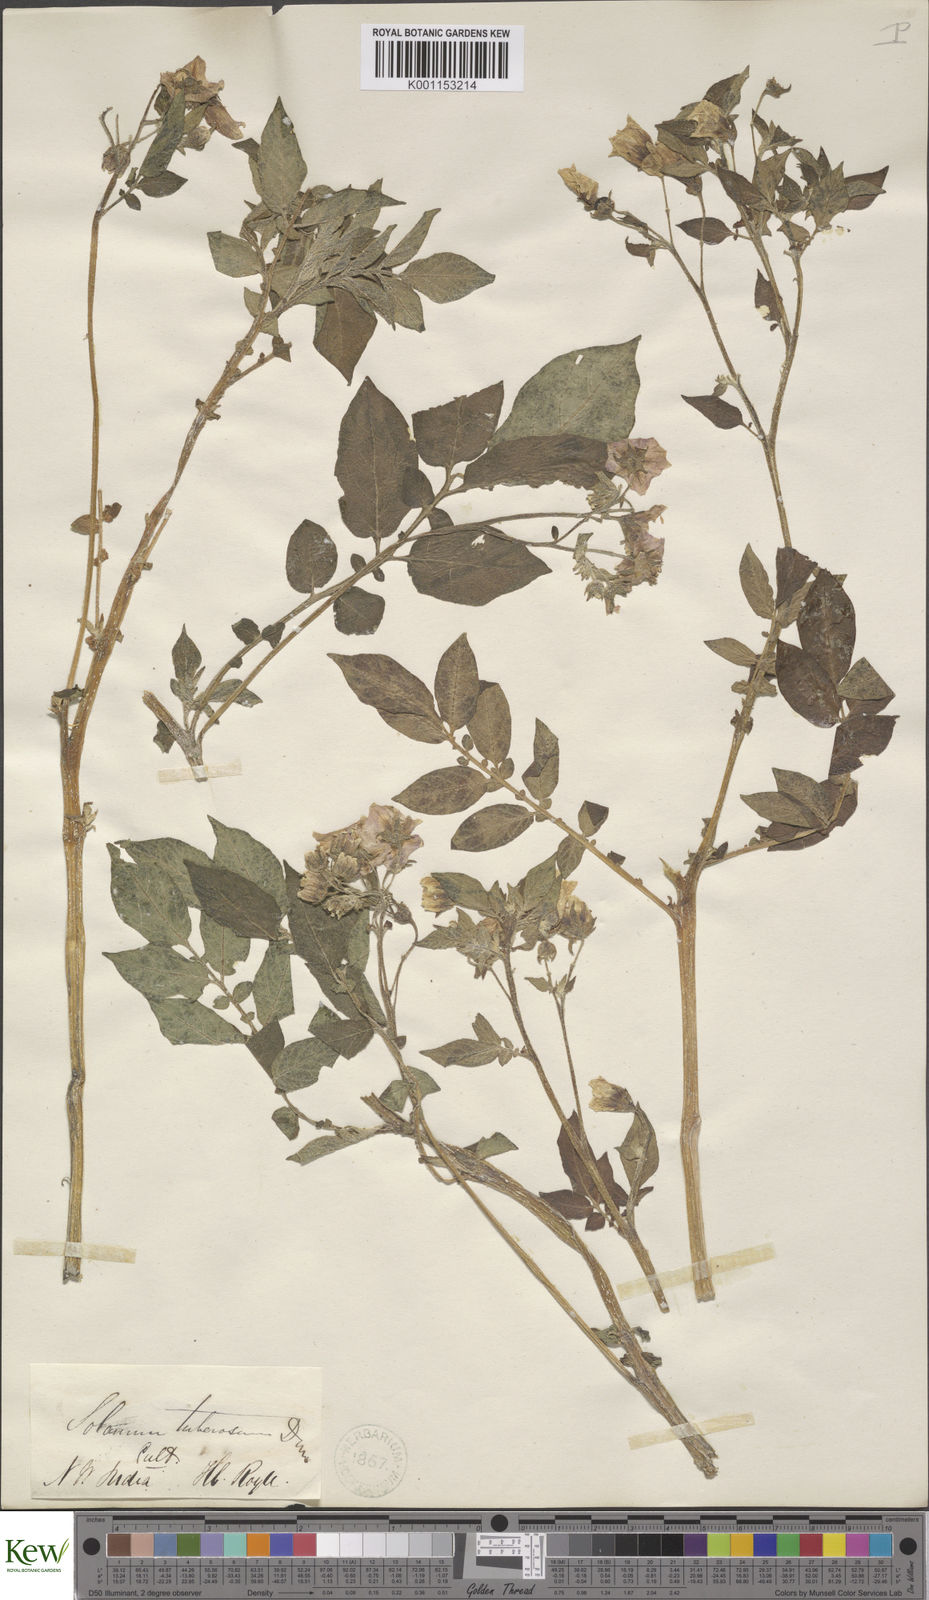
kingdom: Plantae
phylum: Tracheophyta
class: Magnoliopsida
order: Solanales
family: Solanaceae
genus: Solanum
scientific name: Solanum tuberosum
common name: Potato
